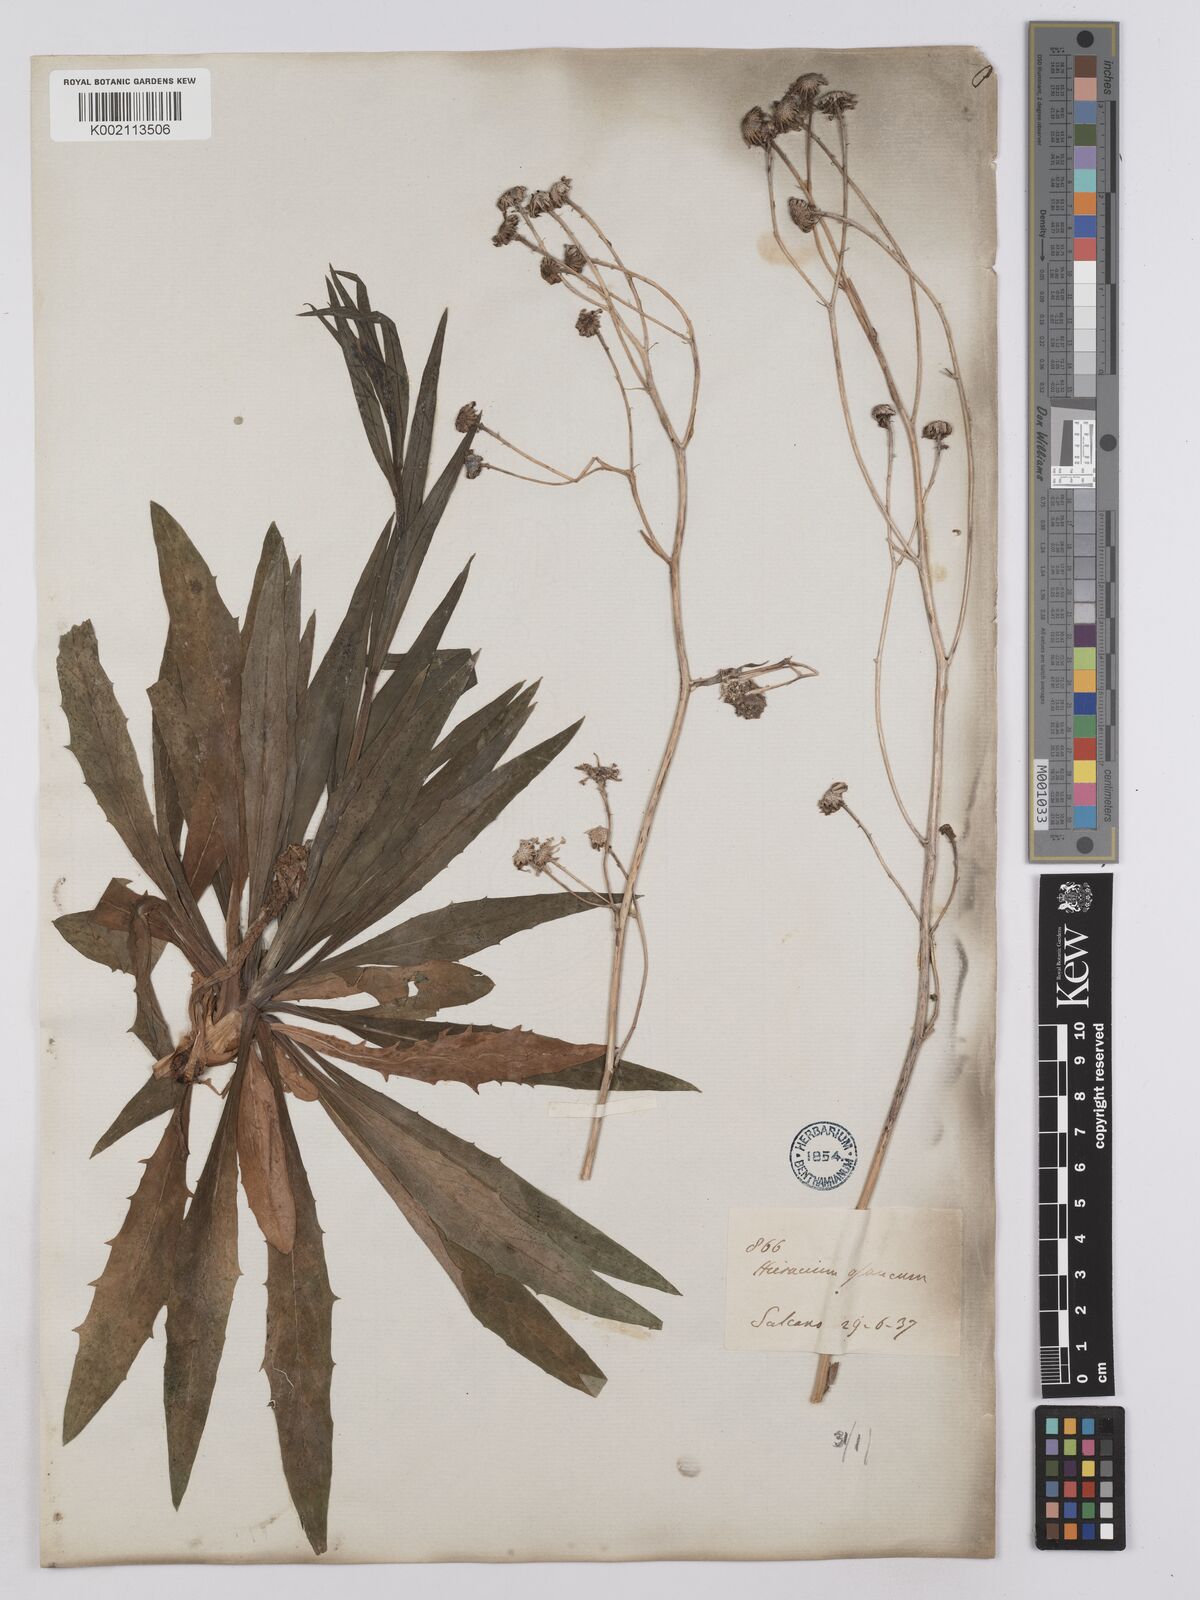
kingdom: Plantae
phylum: Tracheophyta
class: Magnoliopsida
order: Asterales
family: Asteraceae
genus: Hieracium
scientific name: Hieracium porrifolium
